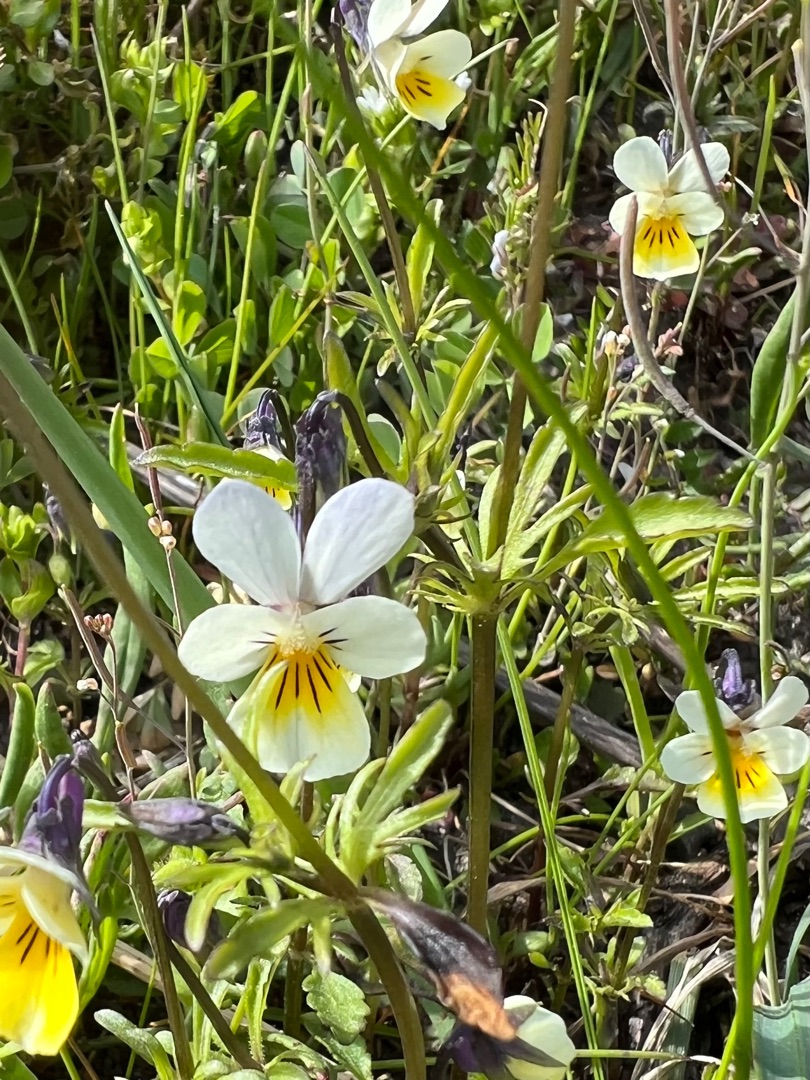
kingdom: Plantae
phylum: Tracheophyta
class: Magnoliopsida
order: Malpighiales
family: Violaceae
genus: Viola
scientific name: Viola arvensis
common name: Ager-stedmoderblomst
